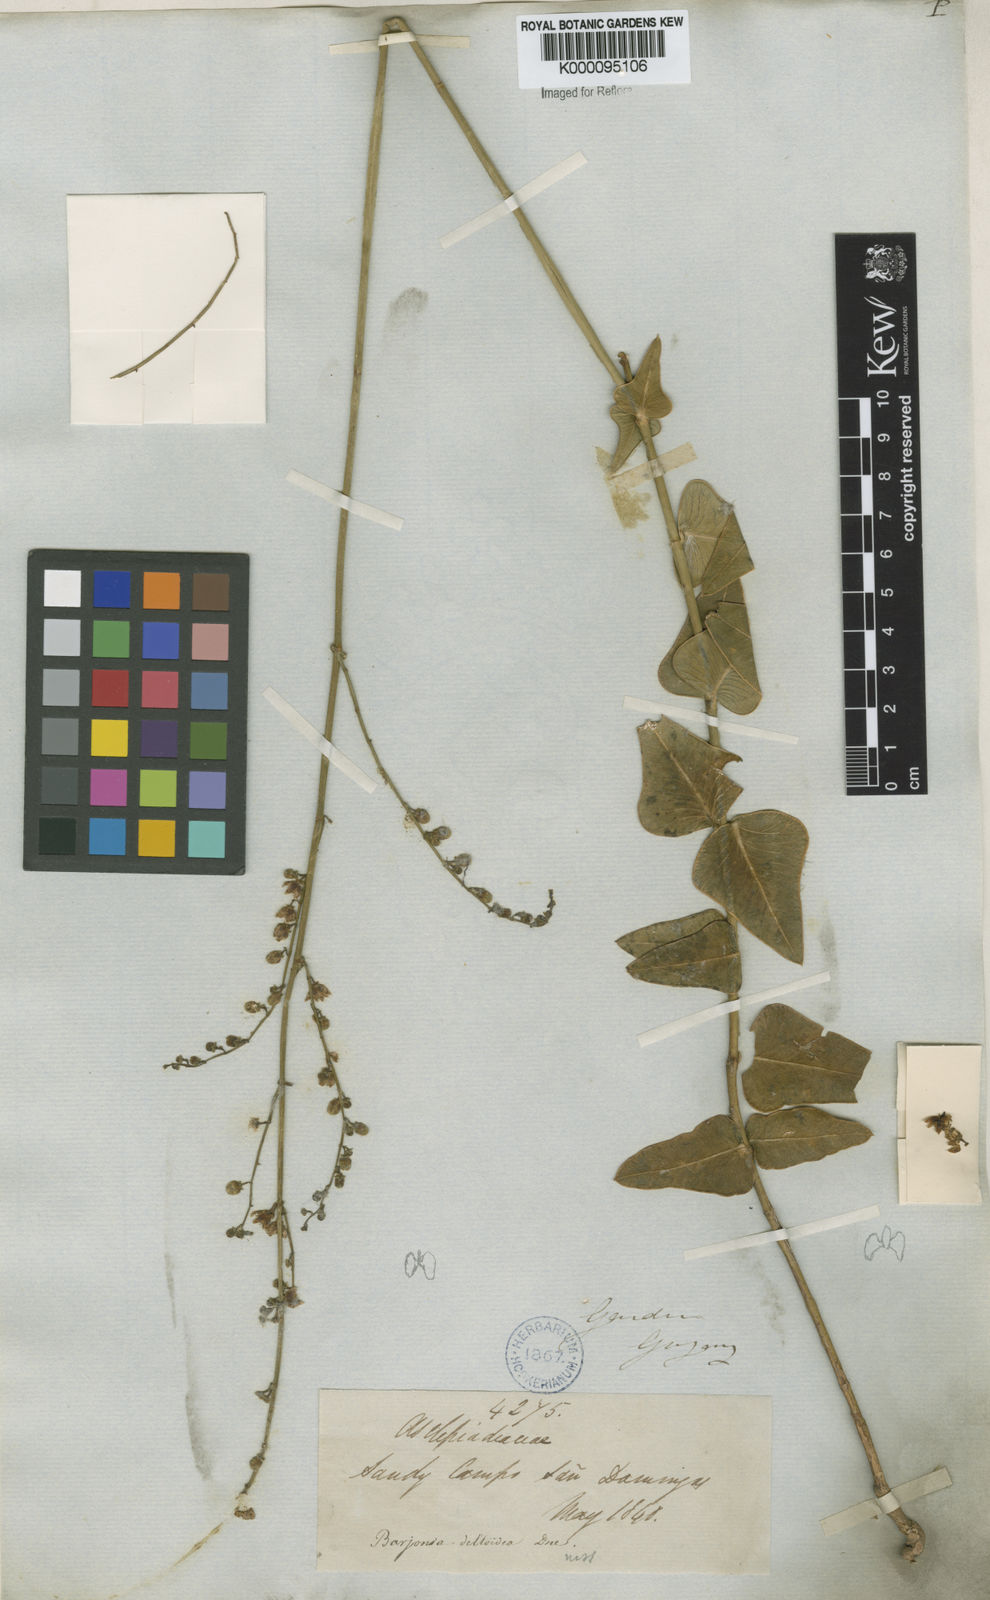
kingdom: Plantae
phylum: Tracheophyta
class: Magnoliopsida
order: Gentianales
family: Apocynaceae
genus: Barjonia
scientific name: Barjonia erecta
